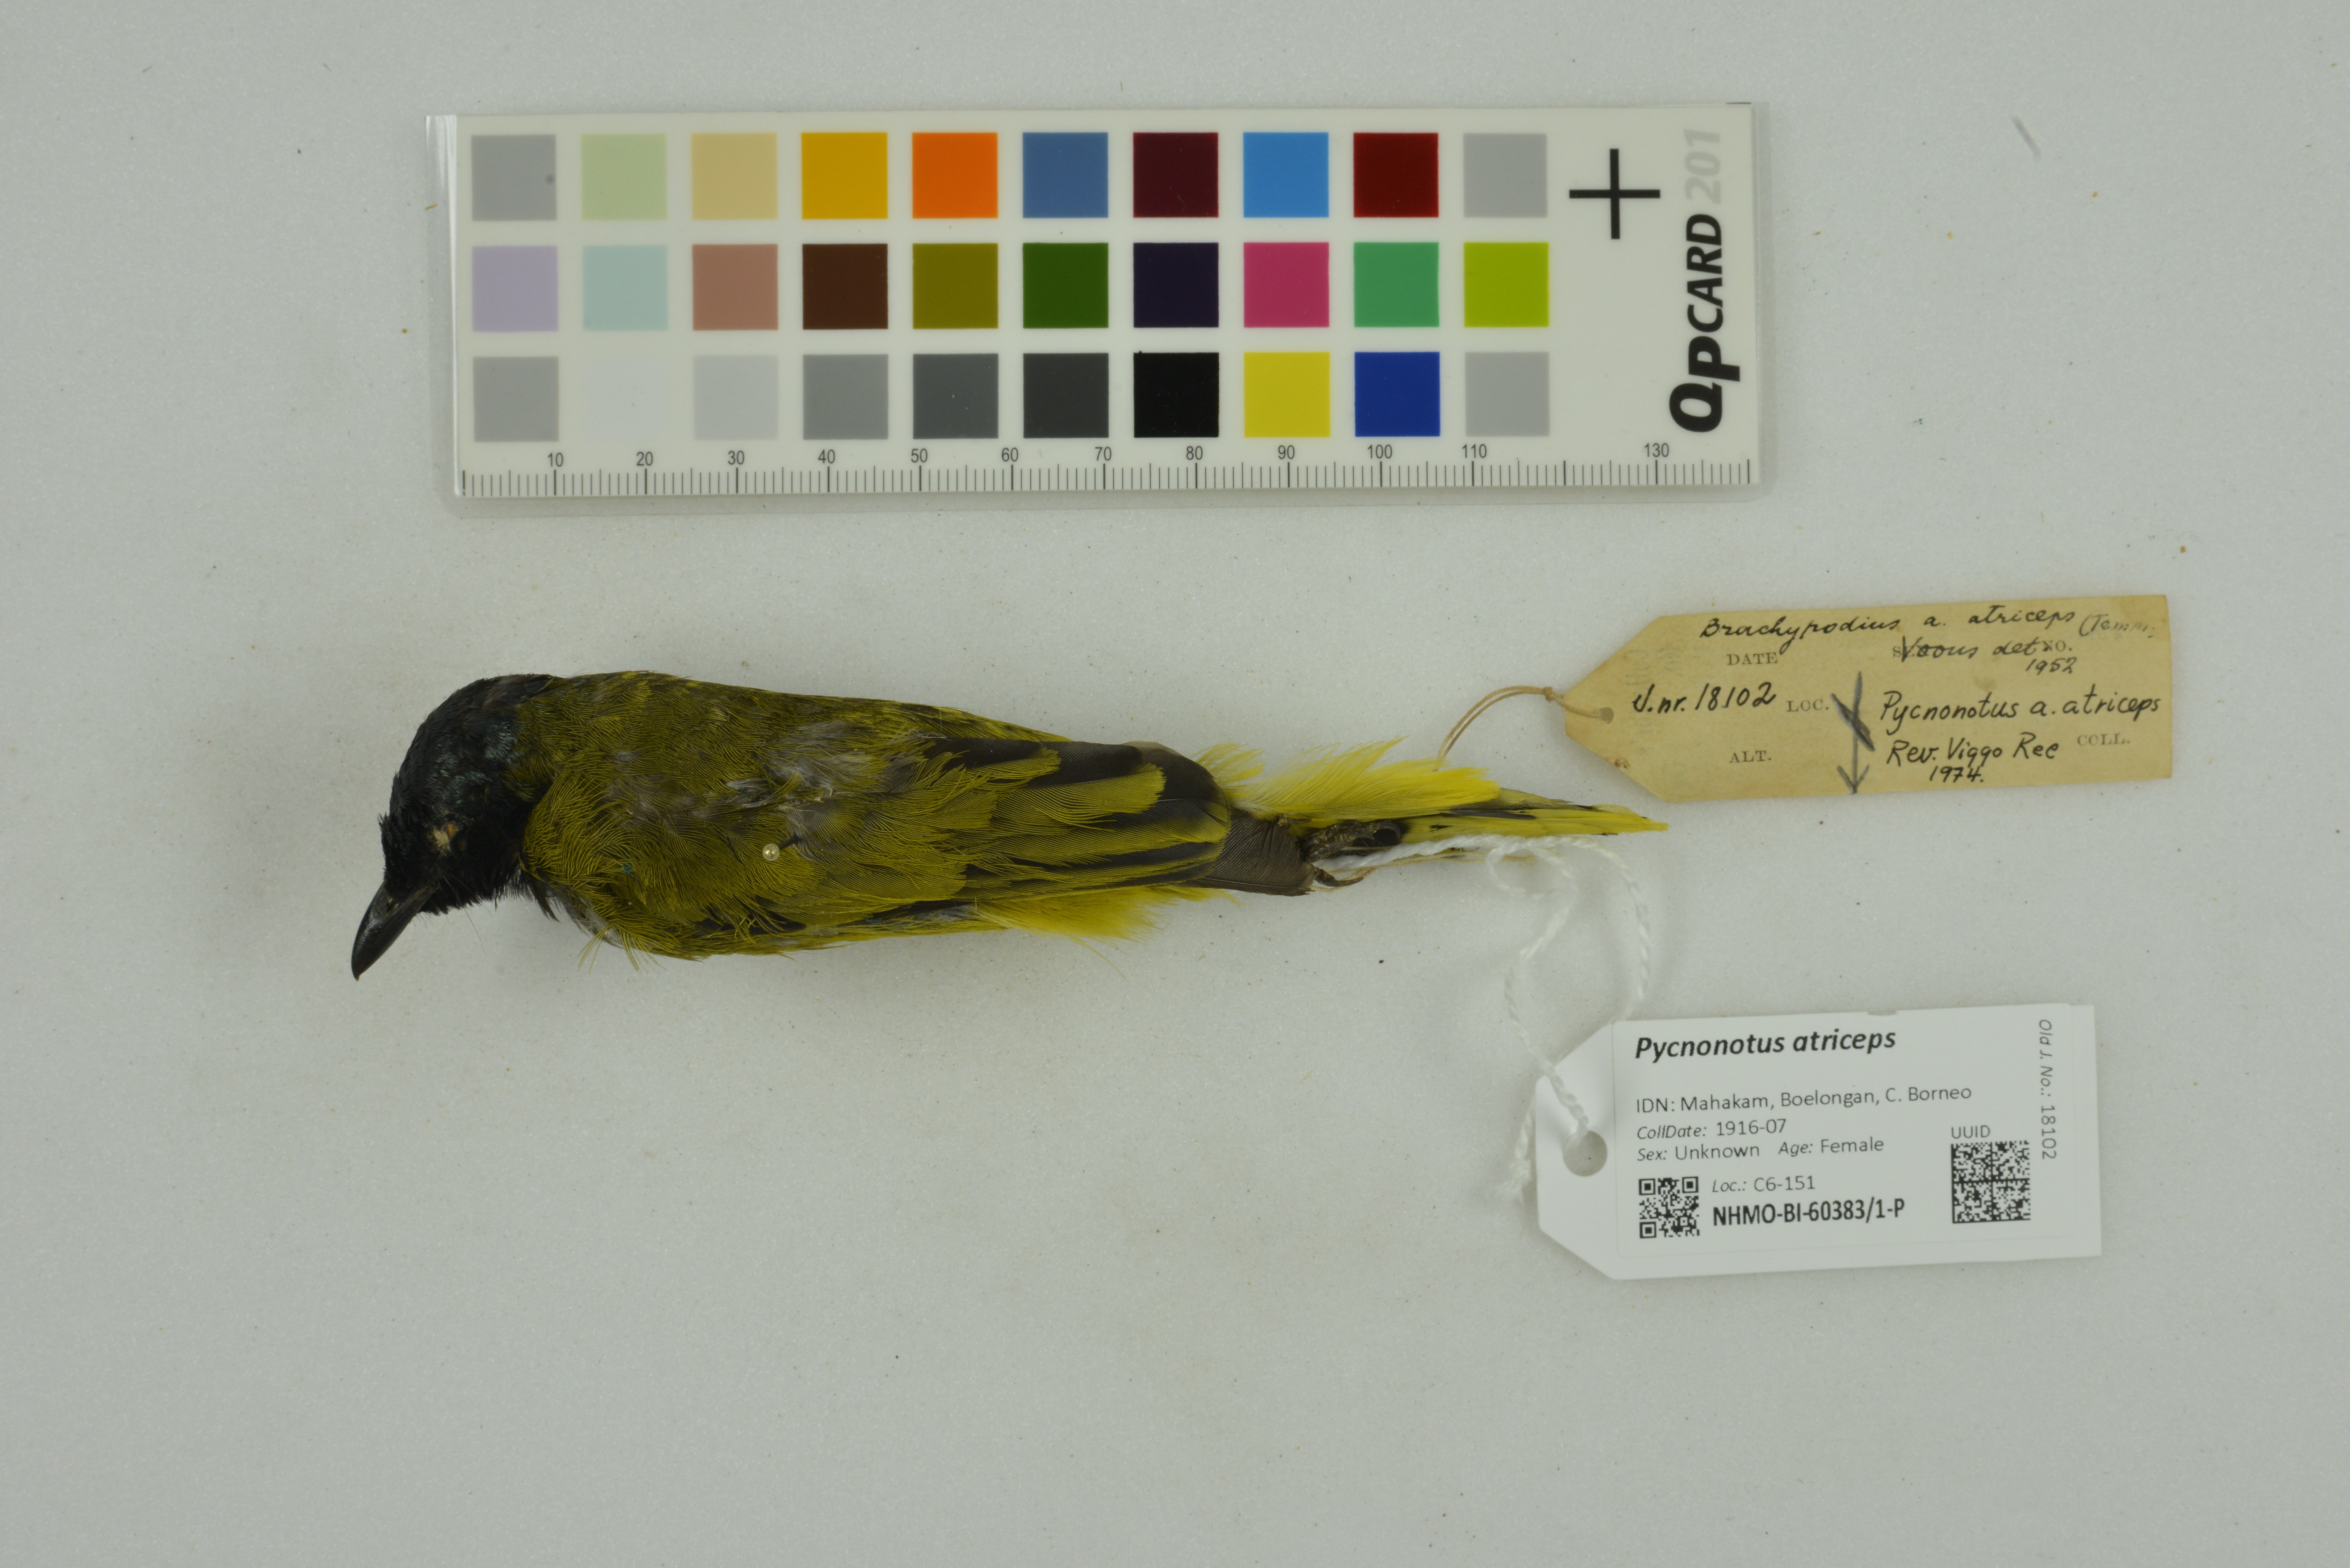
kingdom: Animalia
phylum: Chordata
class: Aves
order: Passeriformes
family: Pycnonotidae
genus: Brachypodius
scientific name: Brachypodius melanocephalos
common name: Black-headed bulbul
